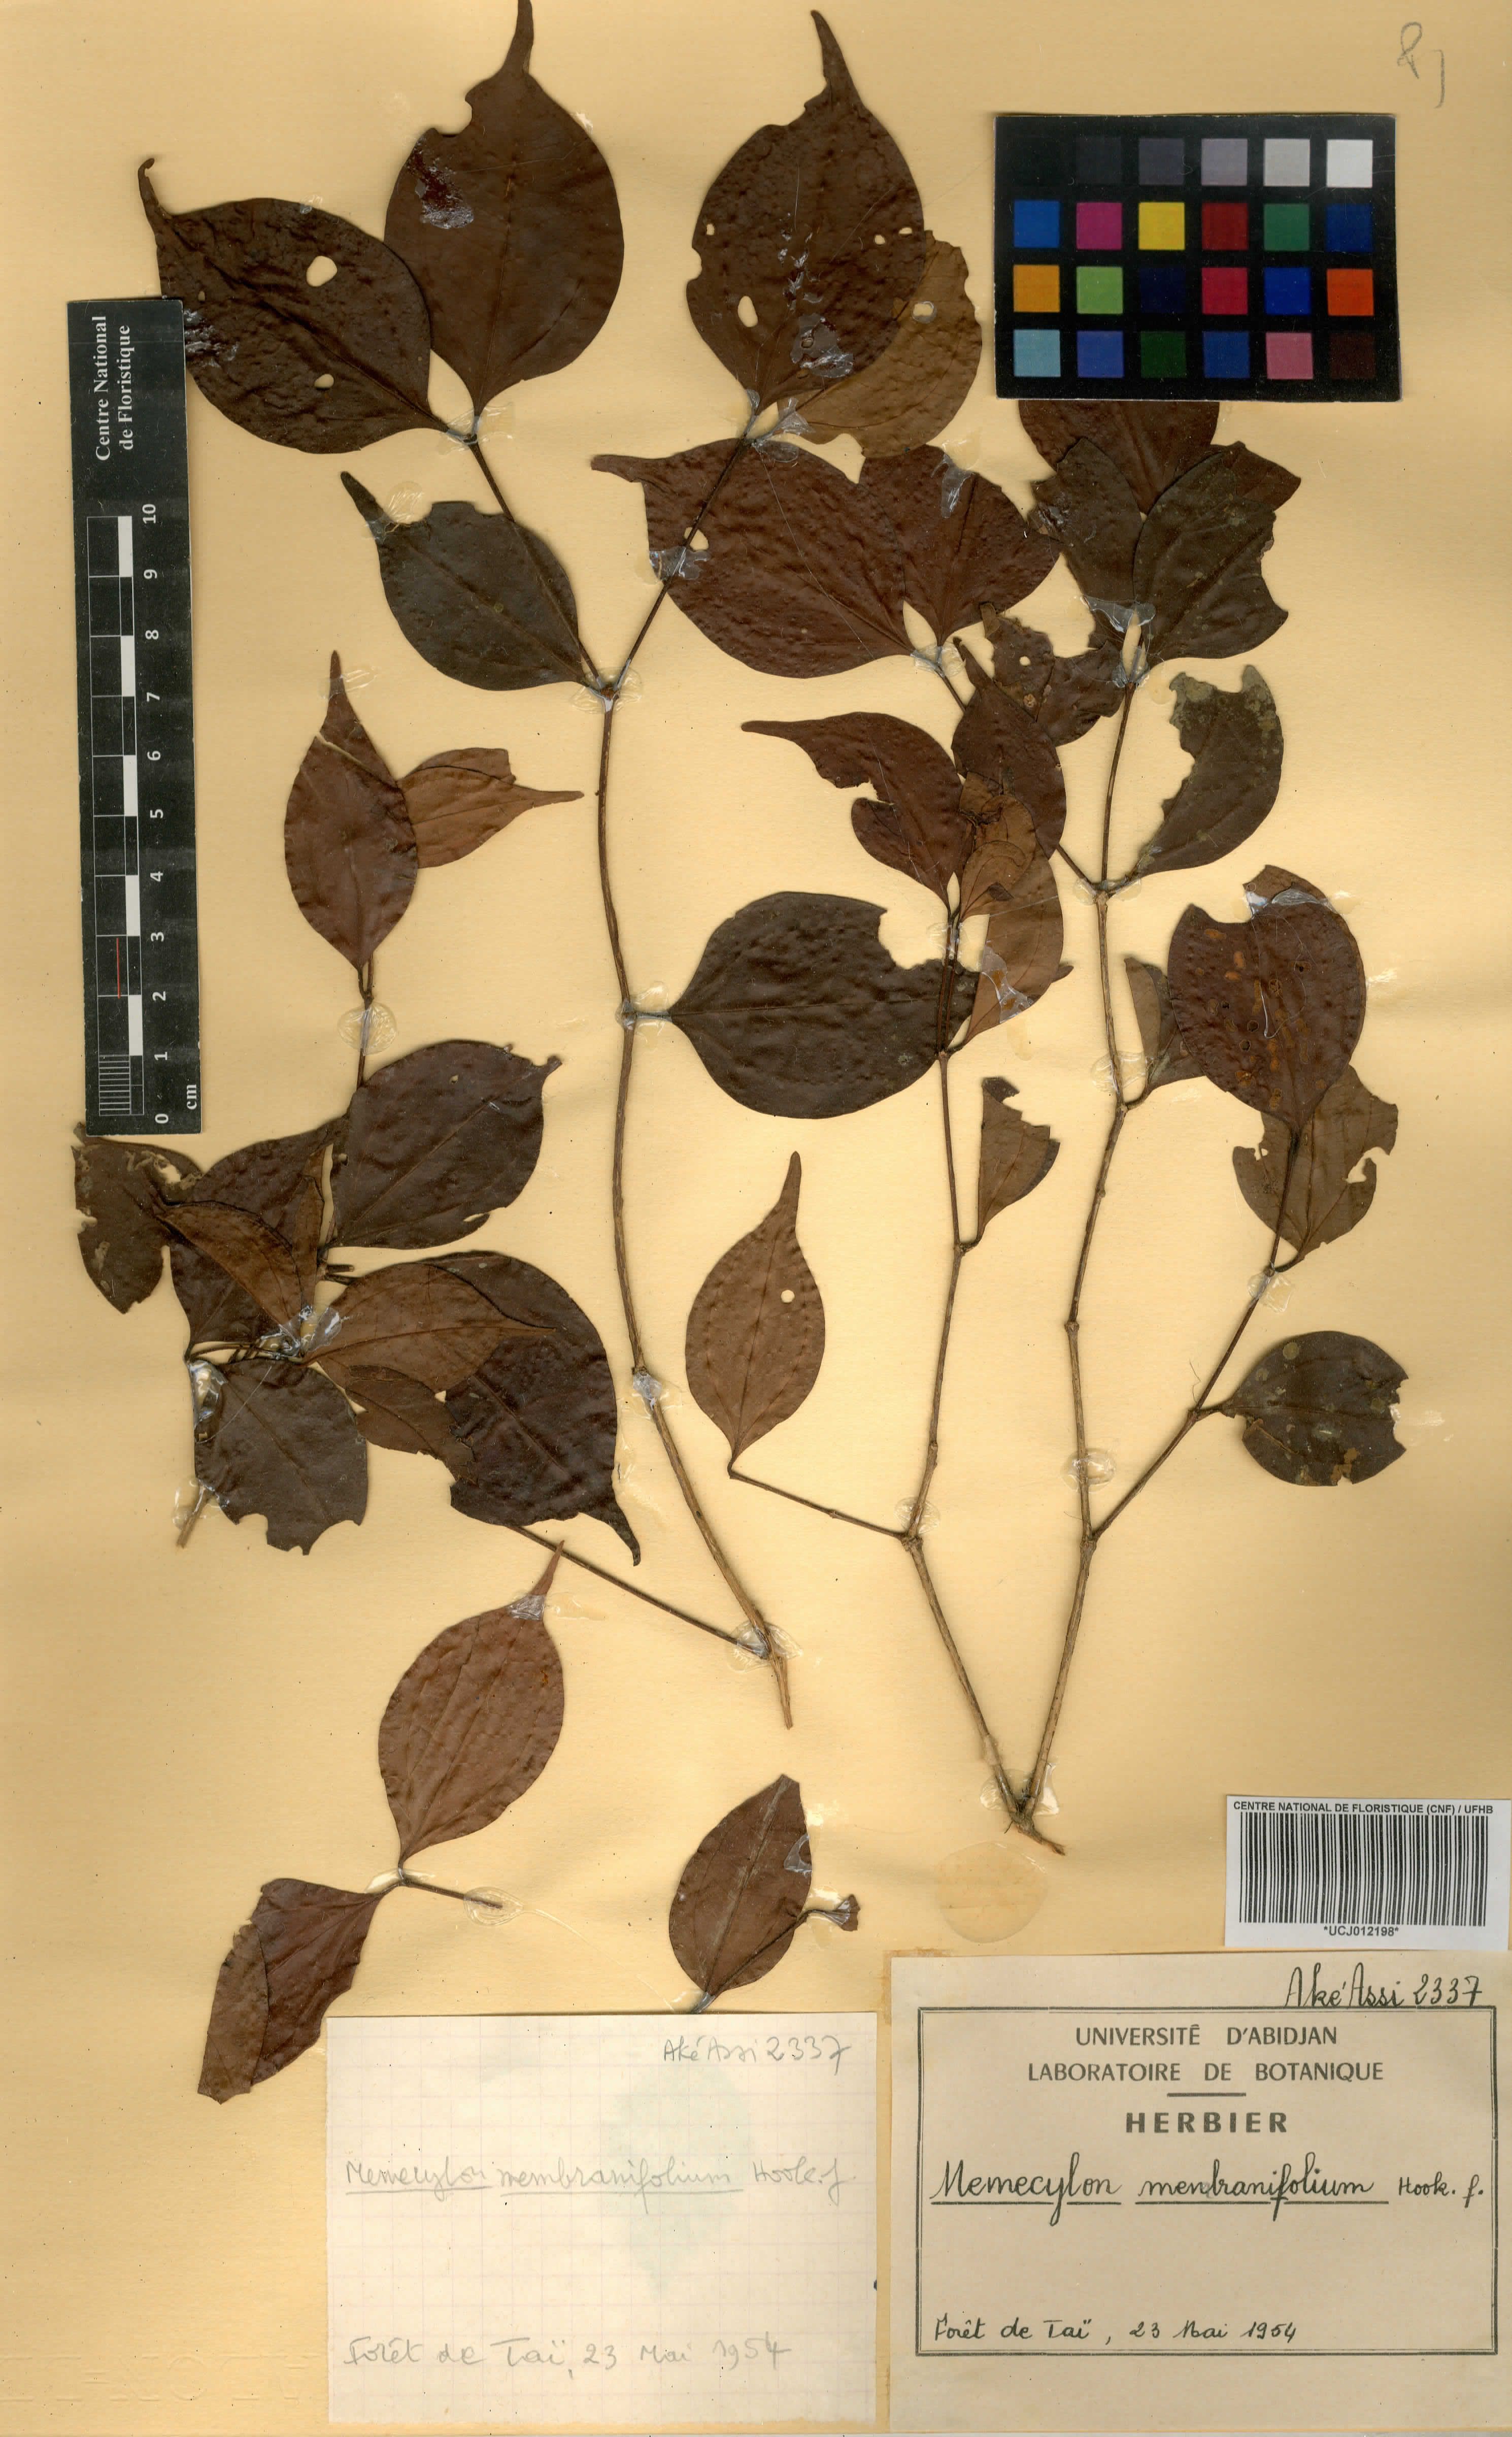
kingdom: Plantae
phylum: Tracheophyta
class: Magnoliopsida
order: Myrtales
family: Melastomataceae
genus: Warneckea
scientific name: Warneckea membranifolia
